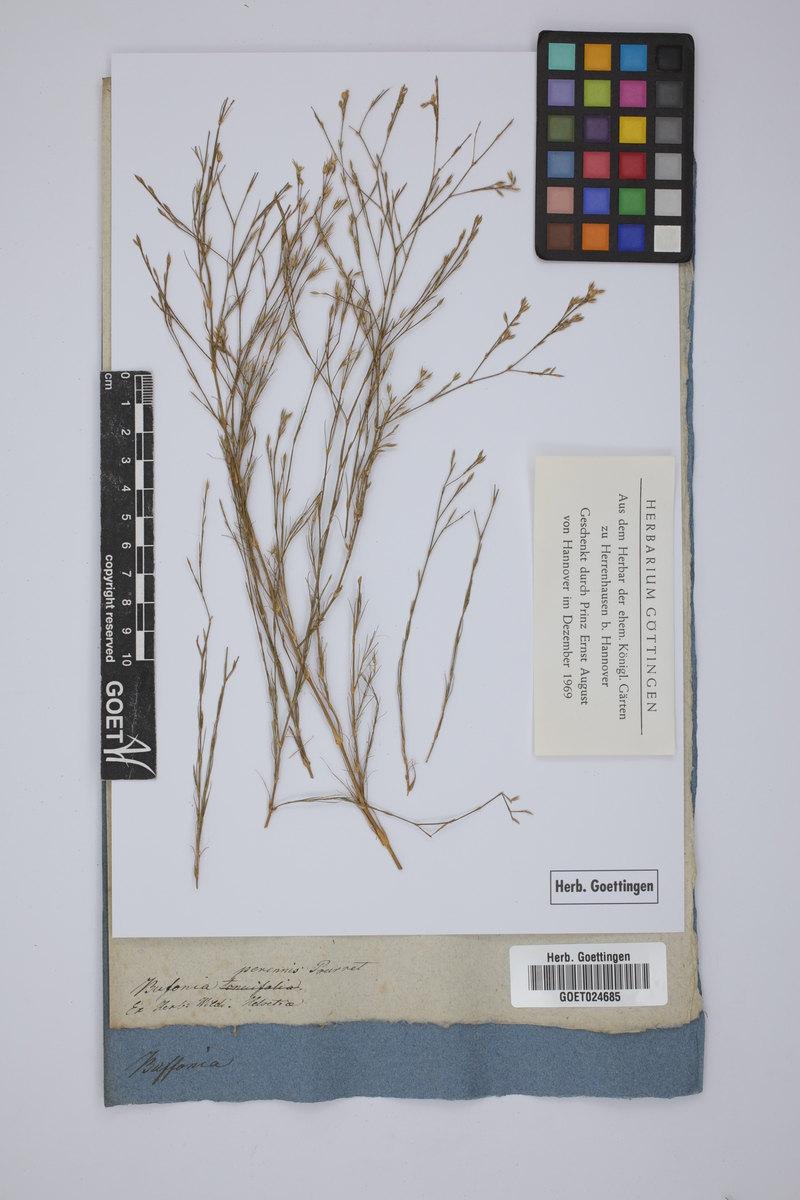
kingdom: Plantae
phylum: Tracheophyta
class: Magnoliopsida
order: Caryophyllales
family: Caryophyllaceae
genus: Bufonia
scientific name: Bufonia perennis
